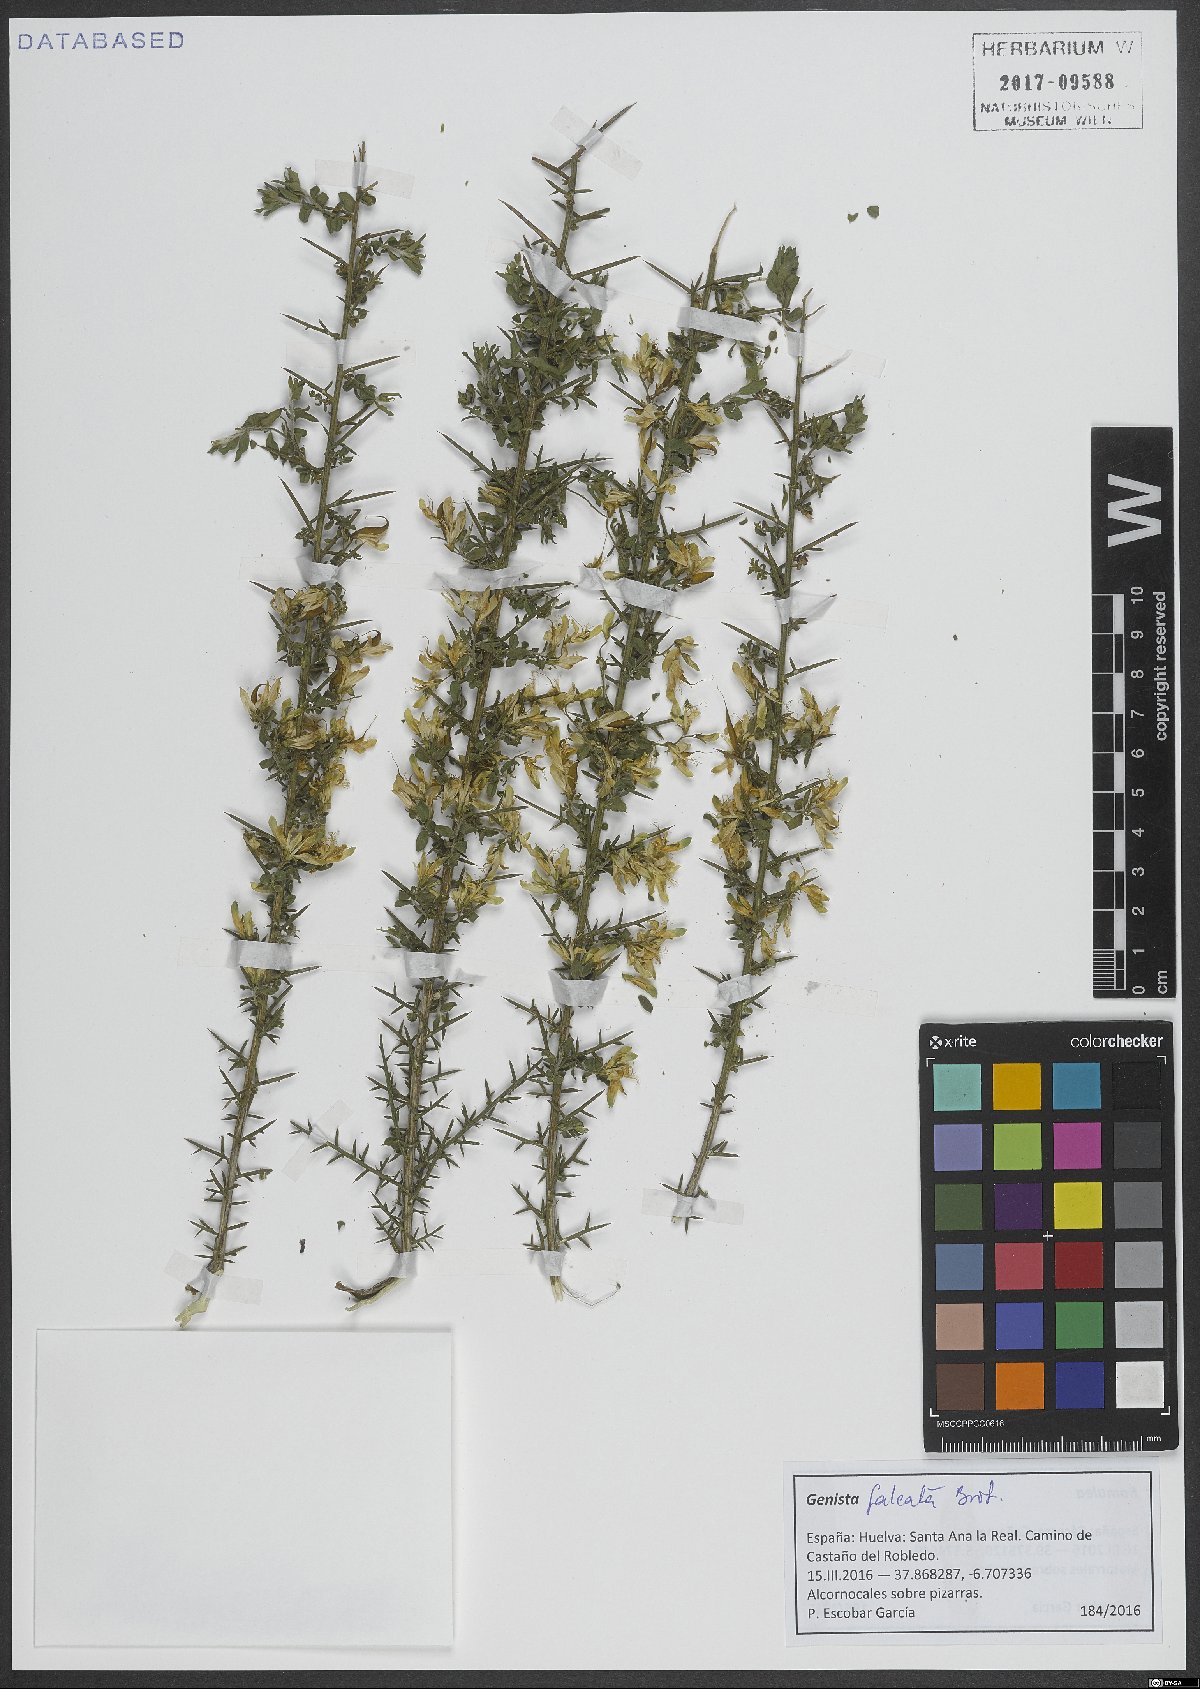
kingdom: Plantae
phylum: Tracheophyta
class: Magnoliopsida
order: Fabales
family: Fabaceae
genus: Genista
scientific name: Genista falcata
